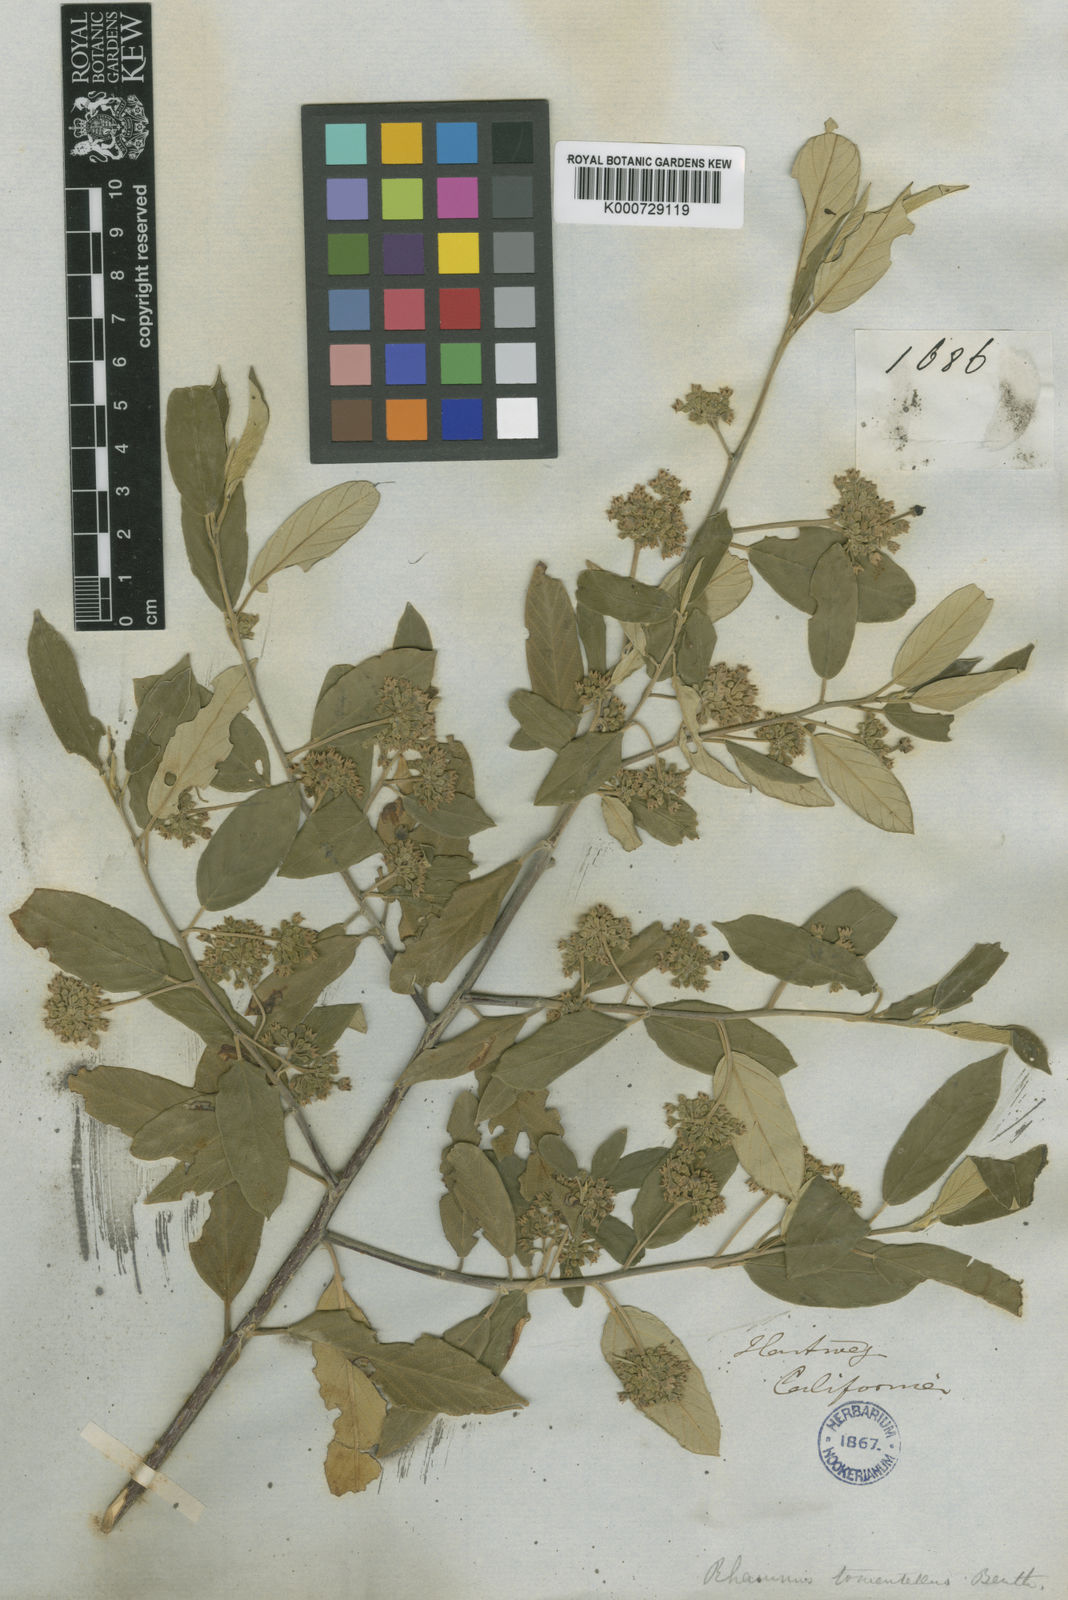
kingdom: Plantae
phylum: Tracheophyta
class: Magnoliopsida
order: Rosales
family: Rhamnaceae
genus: Frangula
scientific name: Frangula californica
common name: California buckthorn
